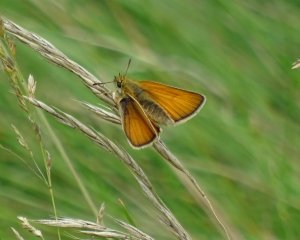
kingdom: Animalia
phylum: Arthropoda
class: Insecta
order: Lepidoptera
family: Hesperiidae
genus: Thymelicus
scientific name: Thymelicus lineola
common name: European Skipper
